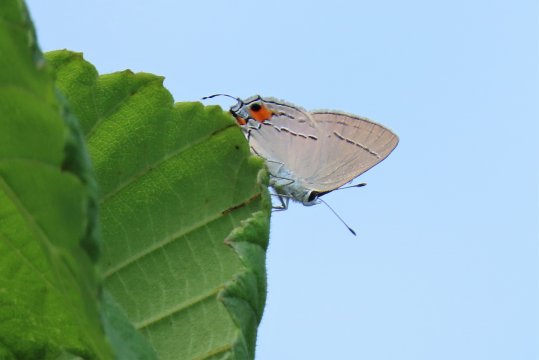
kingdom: Animalia
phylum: Arthropoda
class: Insecta
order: Lepidoptera
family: Lycaenidae
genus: Strymon
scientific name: Strymon melinus
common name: Gray Hairstreak
